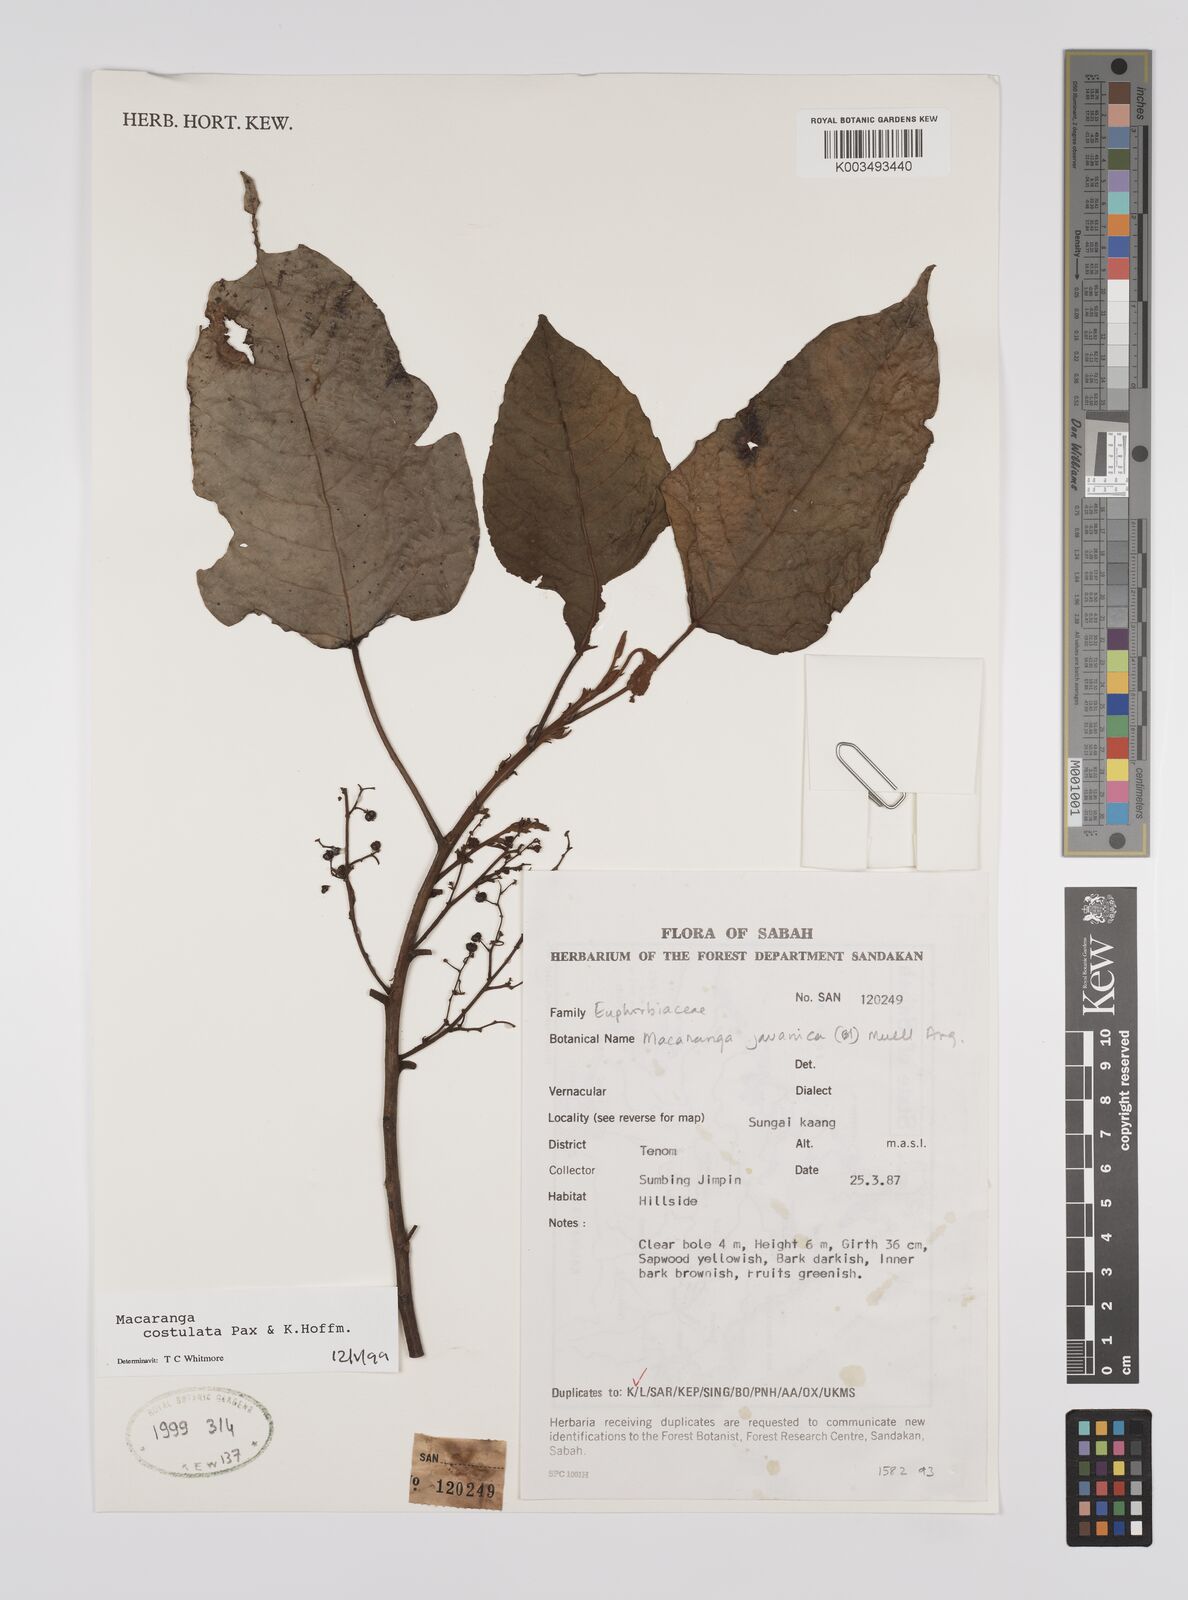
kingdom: Plantae
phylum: Tracheophyta
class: Magnoliopsida
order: Malpighiales
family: Euphorbiaceae
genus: Macaranga
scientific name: Macaranga costulata
